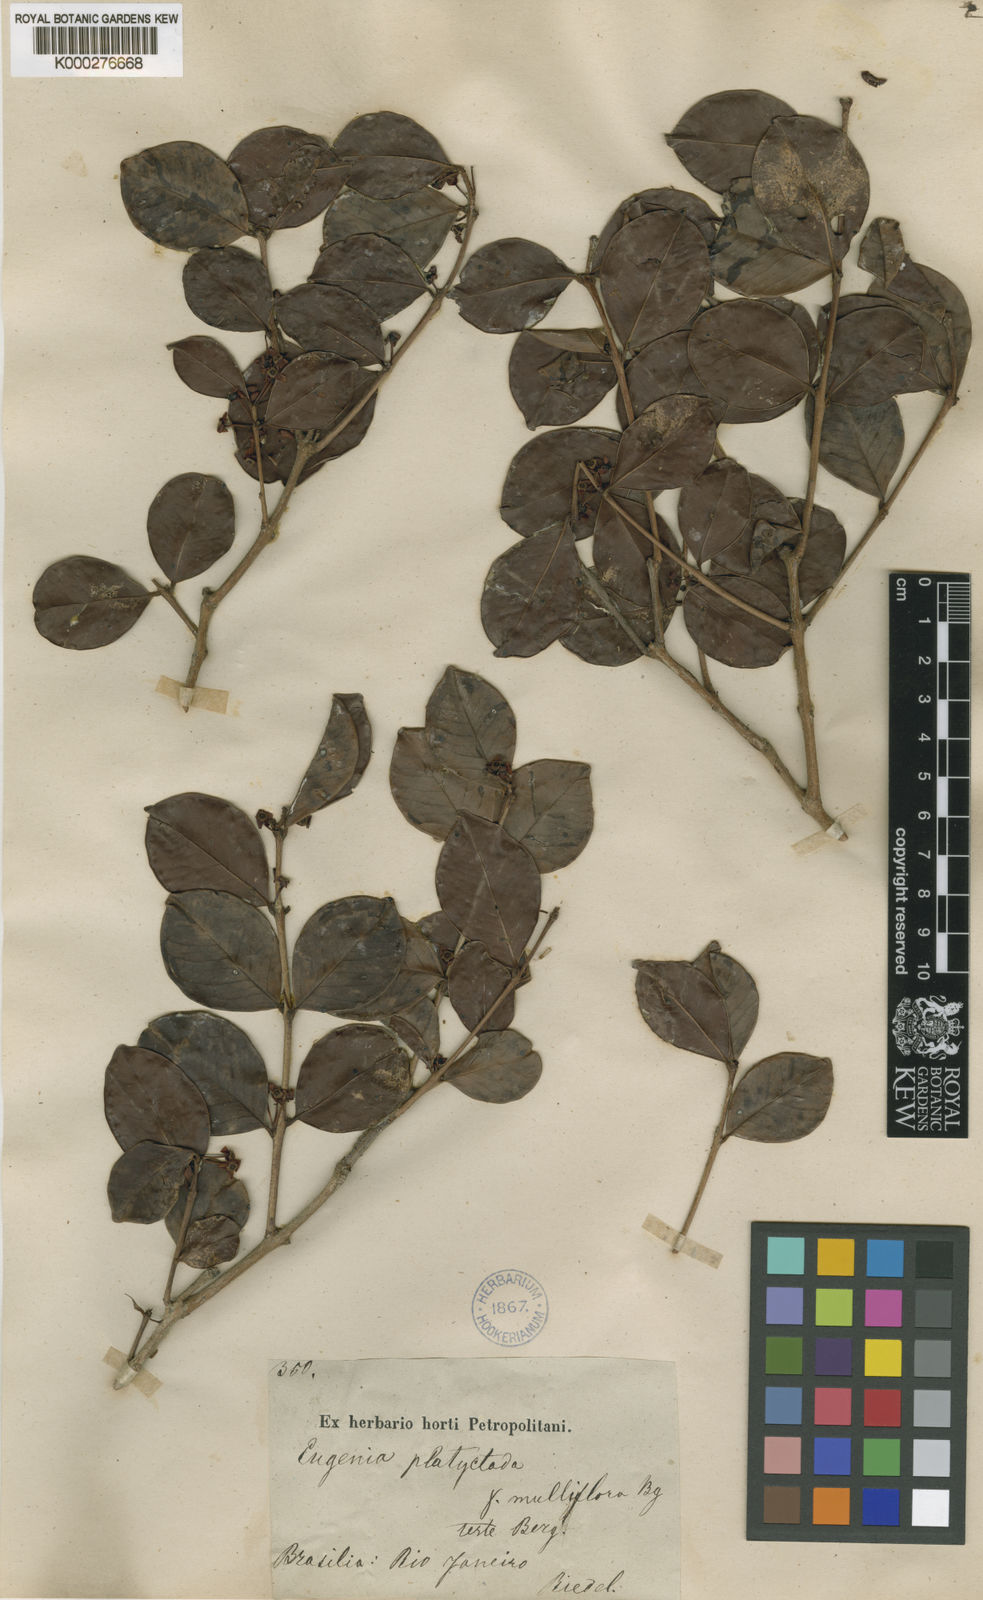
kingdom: Plantae
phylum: Tracheophyta
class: Magnoliopsida
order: Myrtales
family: Myrtaceae
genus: Eugenia
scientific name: Eugenia punicifolia
